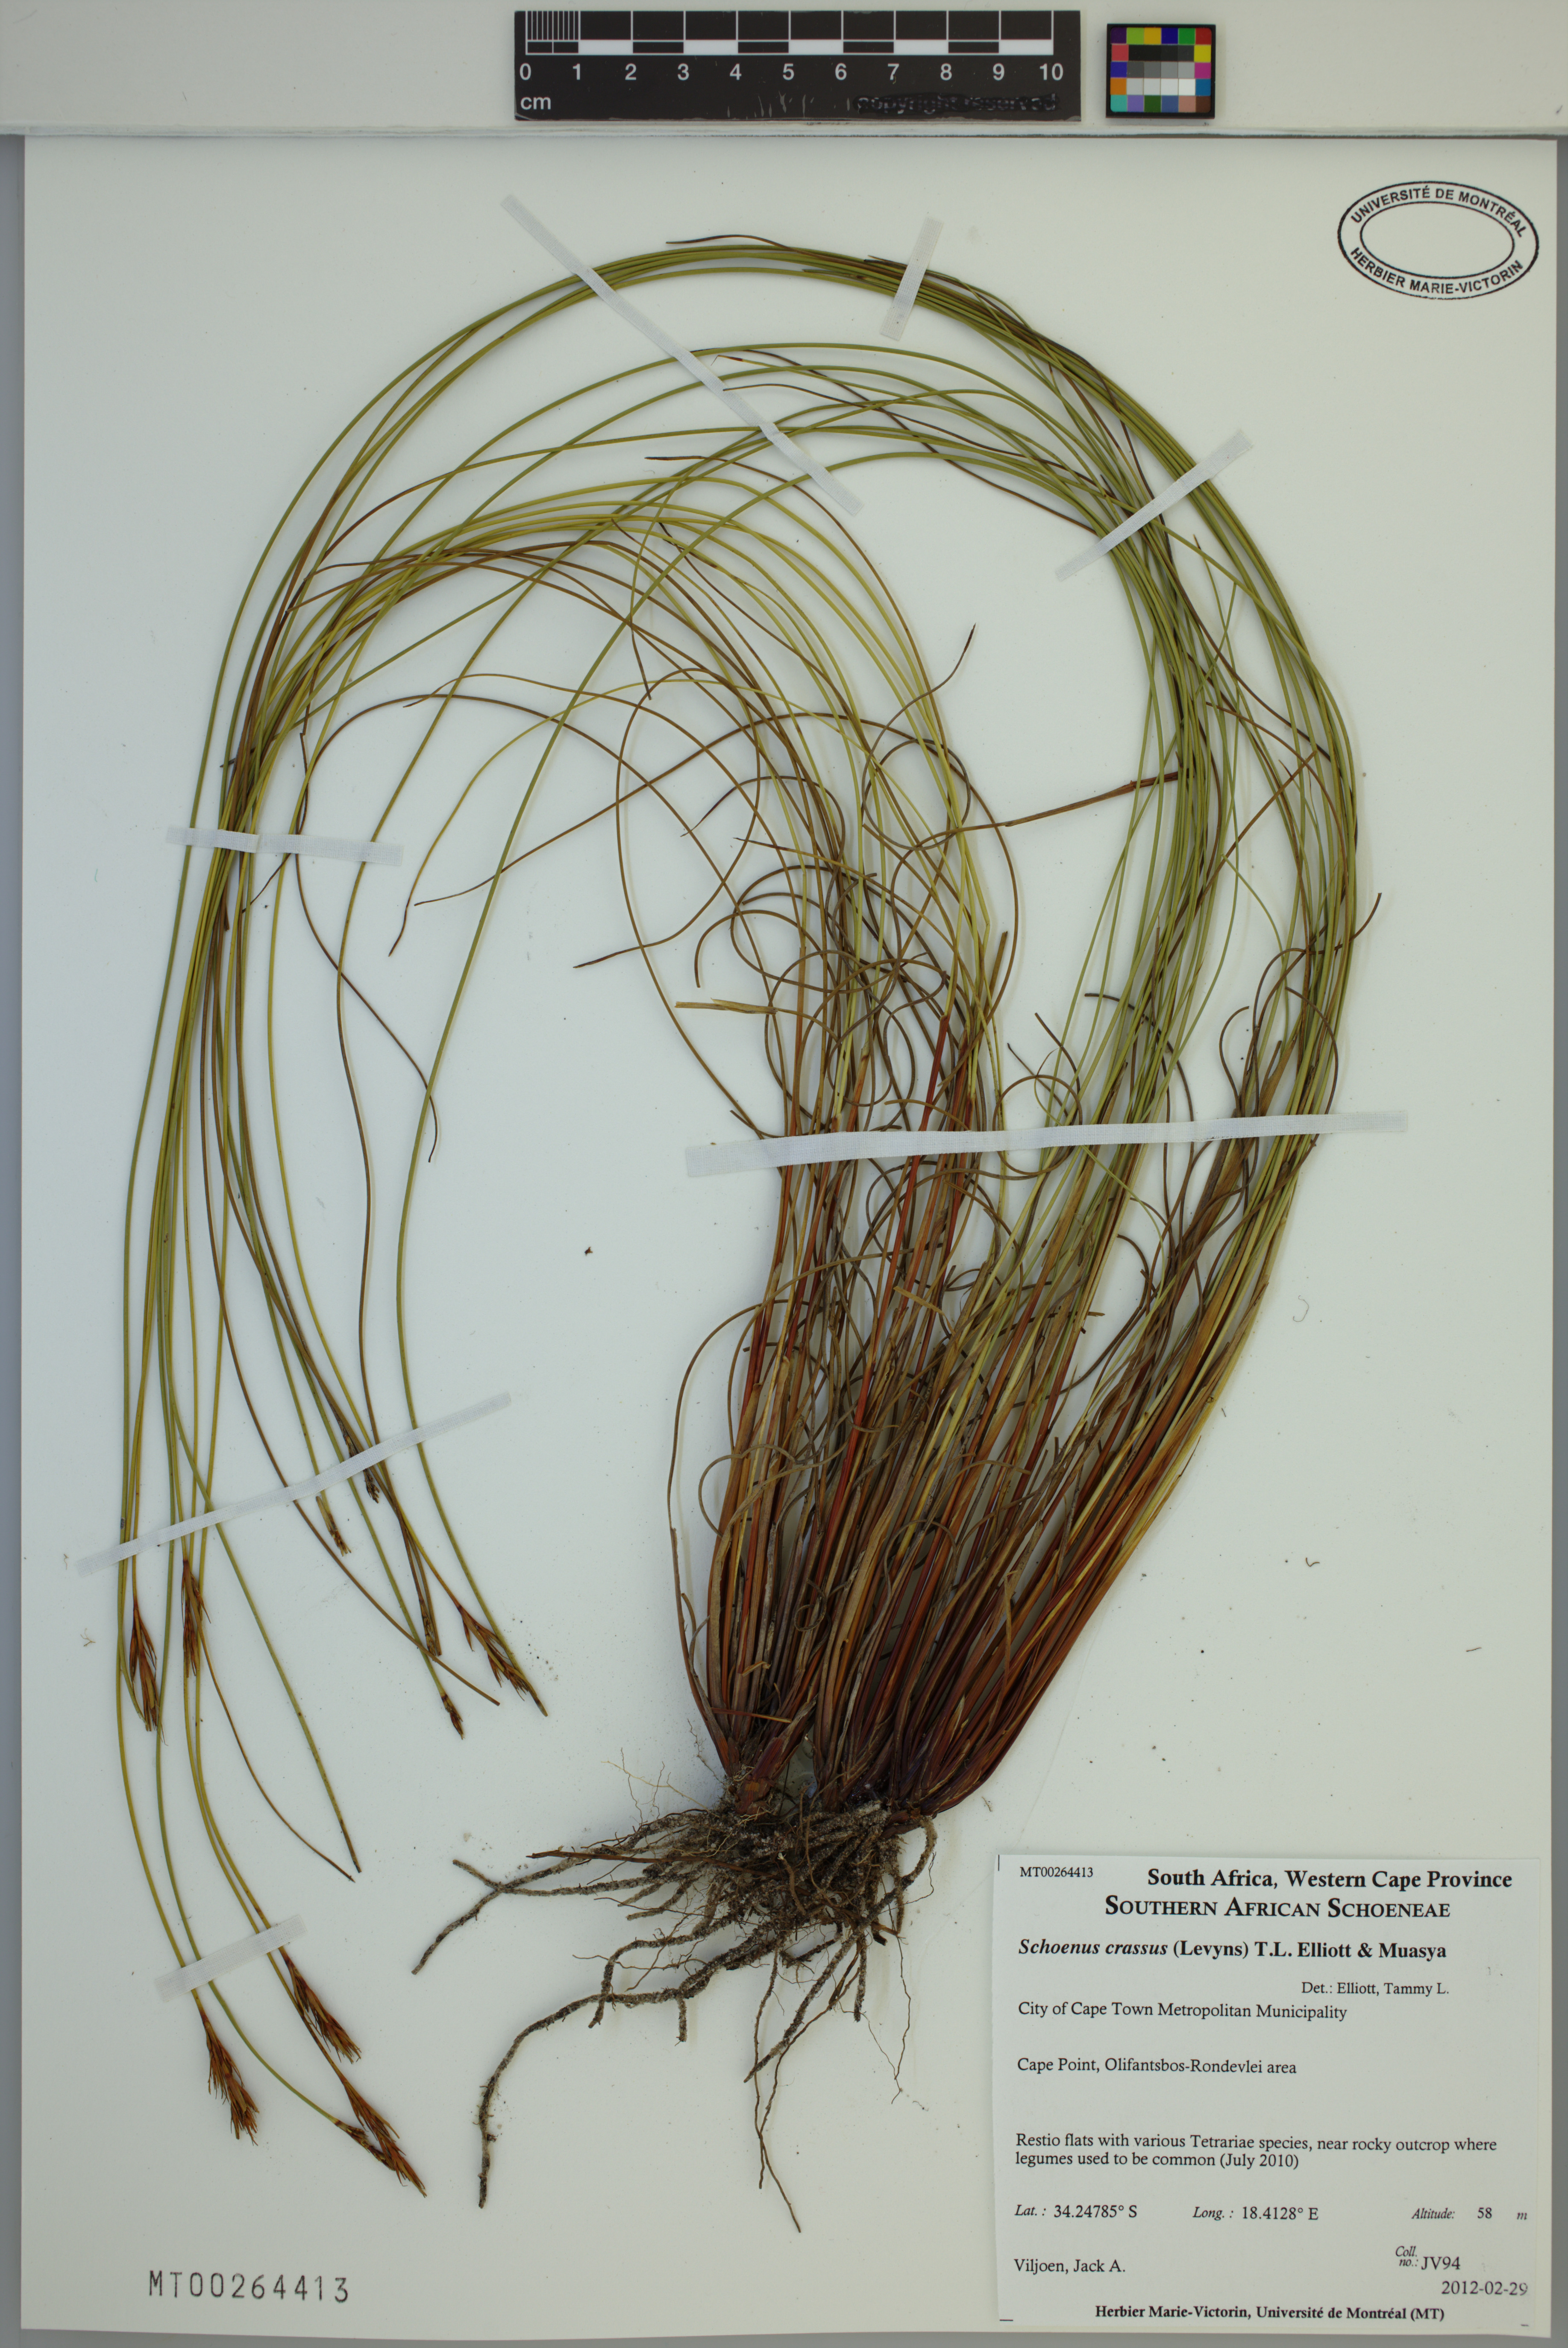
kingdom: Plantae
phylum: Tracheophyta
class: Liliopsida
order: Poales
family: Cyperaceae
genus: Schoenus
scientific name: Schoenus crassus
